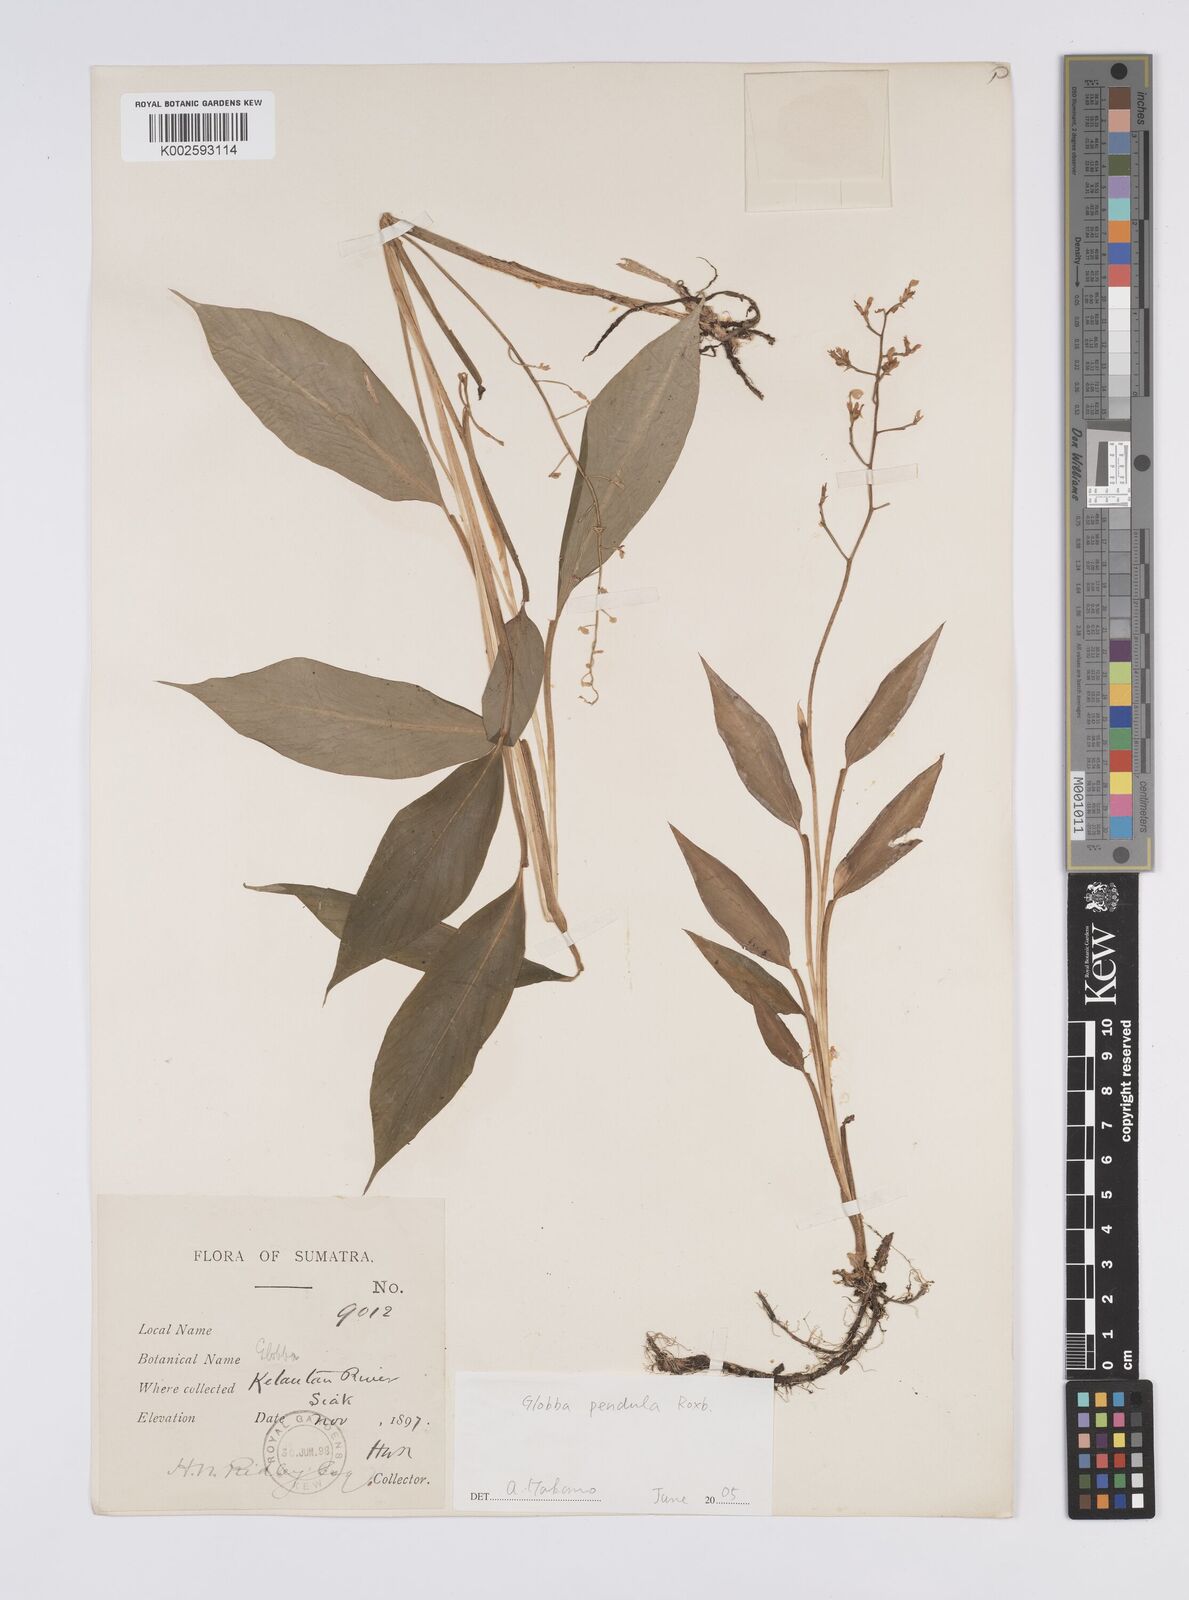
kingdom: Plantae
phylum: Tracheophyta
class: Liliopsida
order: Zingiberales
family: Zingiberaceae
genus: Globba
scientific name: Globba pendula
